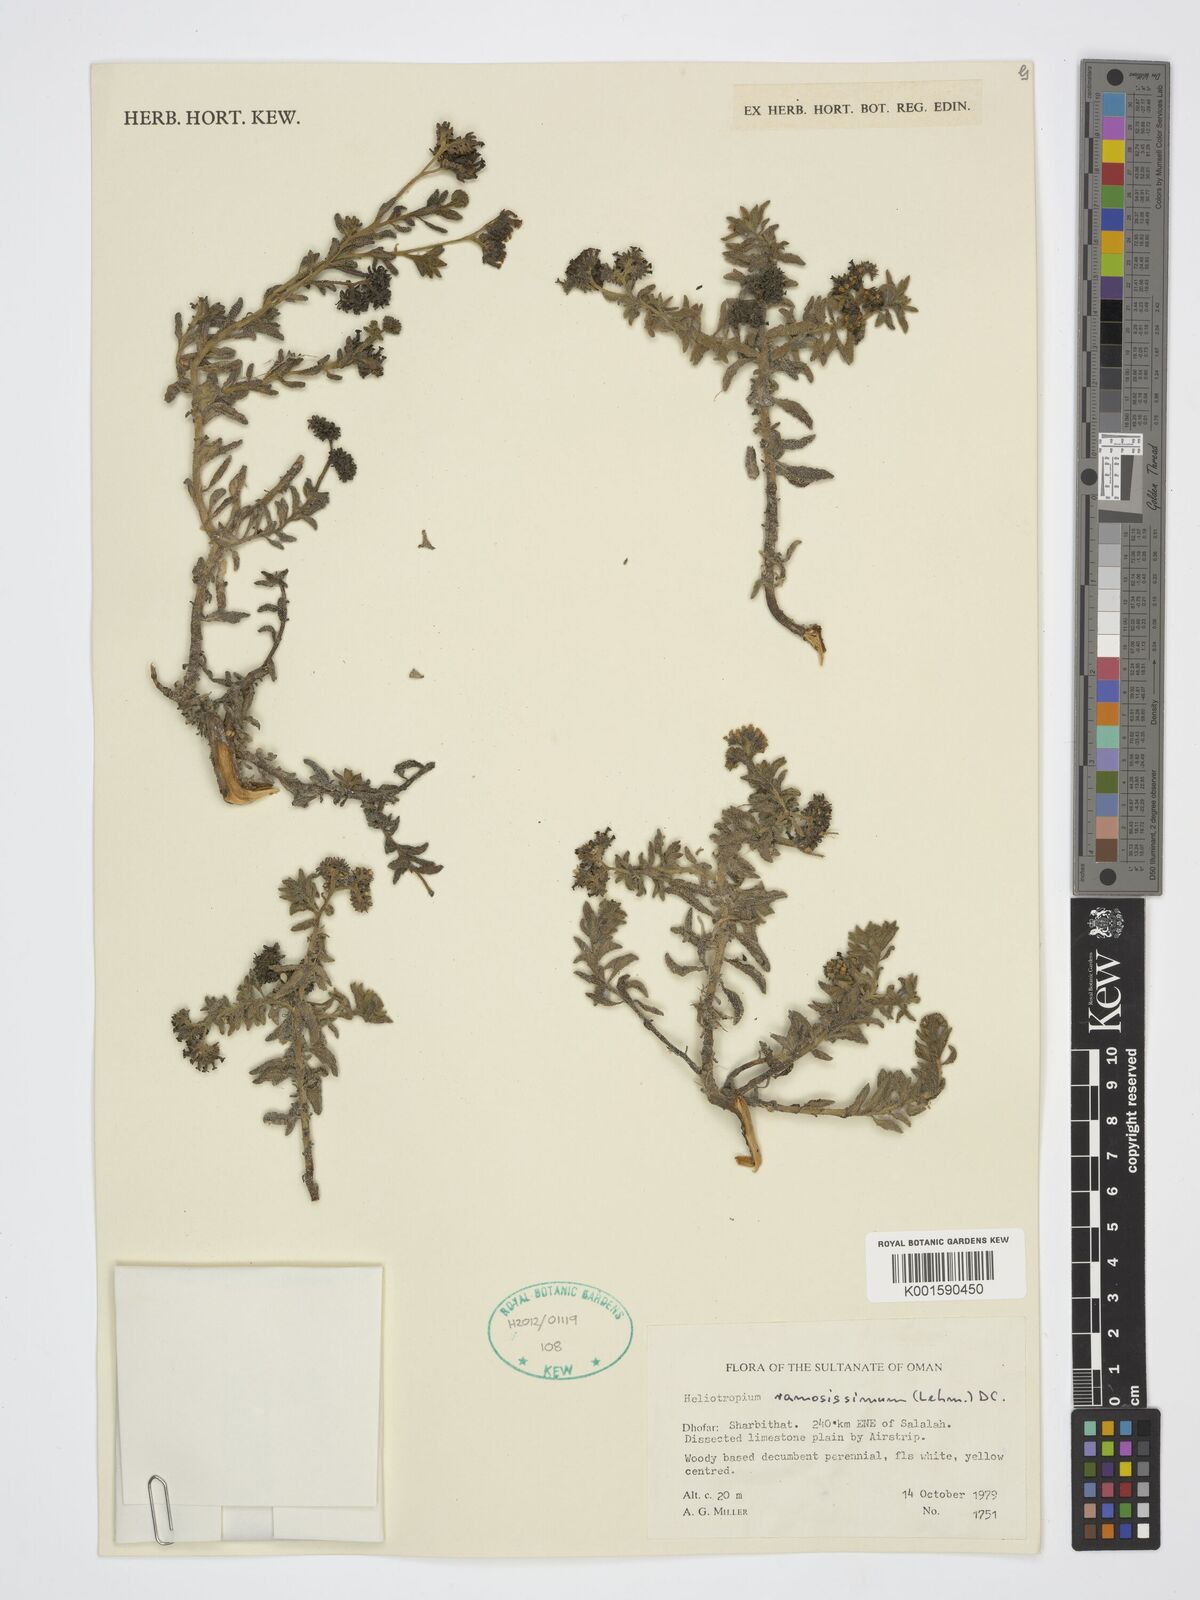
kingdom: Plantae
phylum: Tracheophyta
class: Magnoliopsida
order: Boraginales
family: Heliotropiaceae
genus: Heliotropium
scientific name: Heliotropium ramosissimum
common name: Wavy heliotrope
